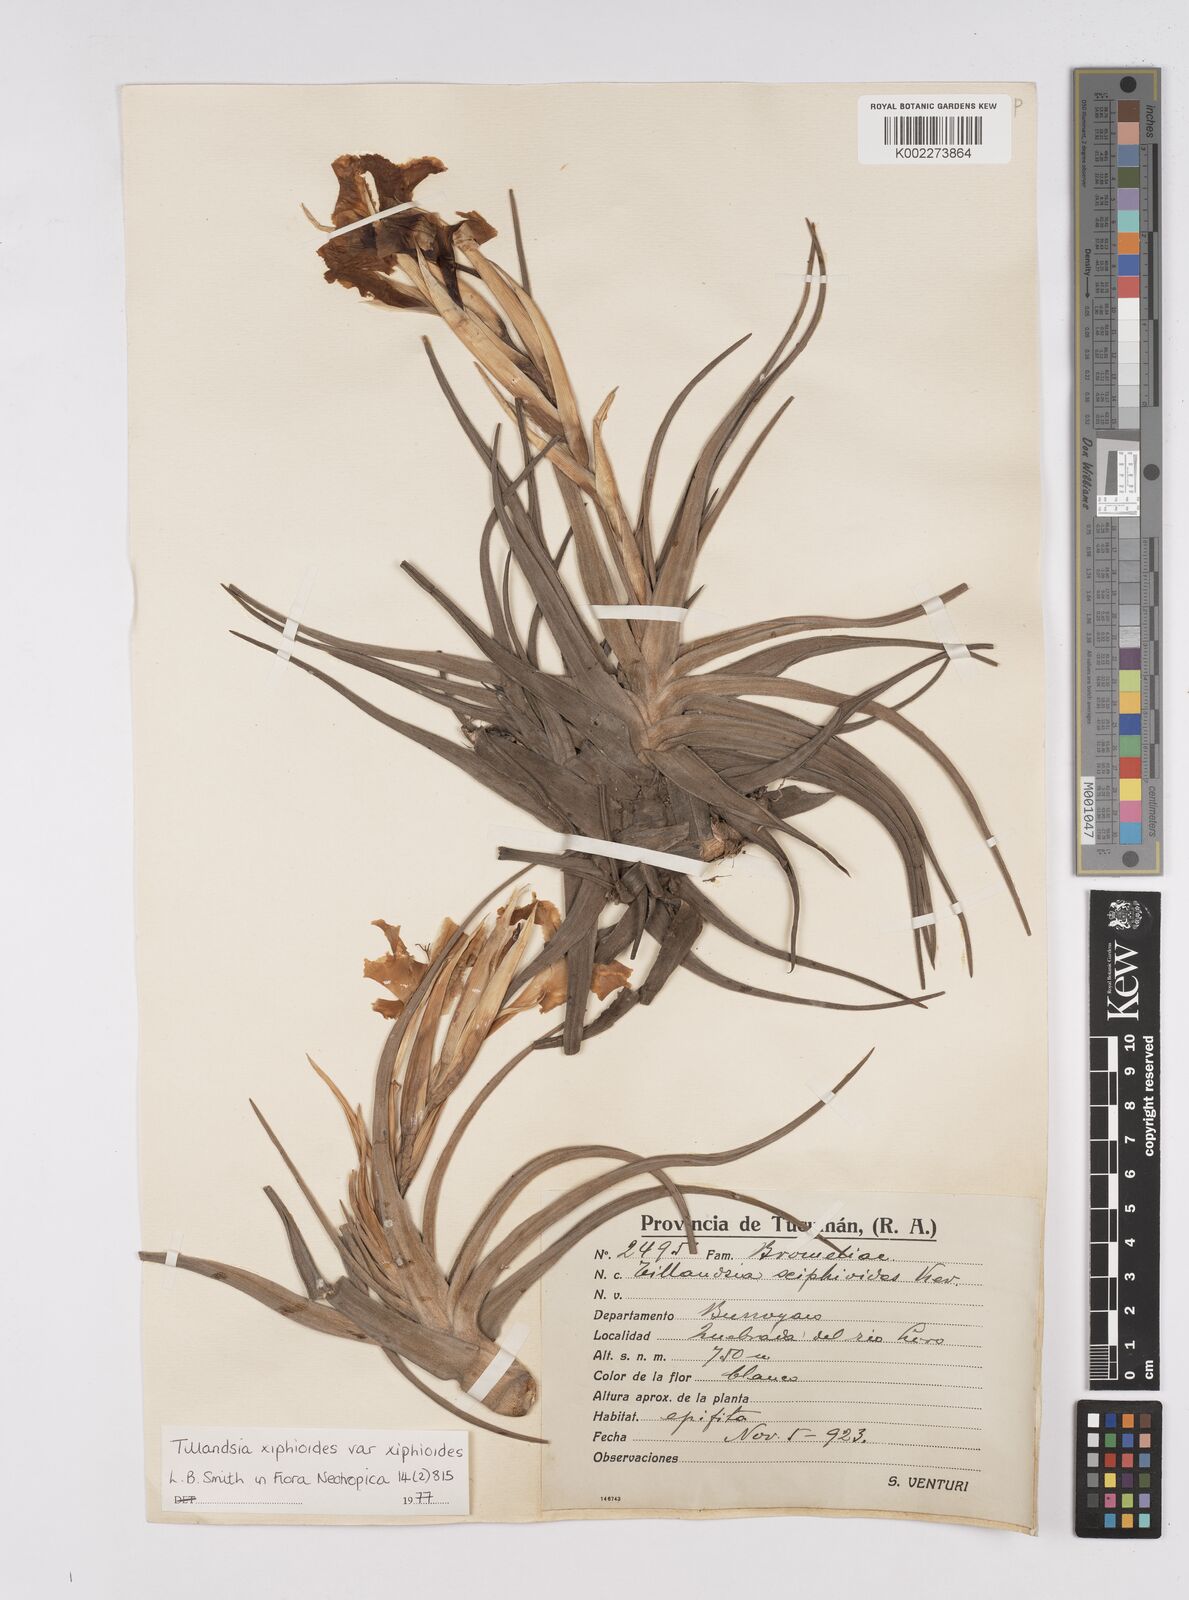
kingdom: Plantae
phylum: Tracheophyta
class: Liliopsida
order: Poales
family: Bromeliaceae
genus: Tillandsia
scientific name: Tillandsia xiphioides
